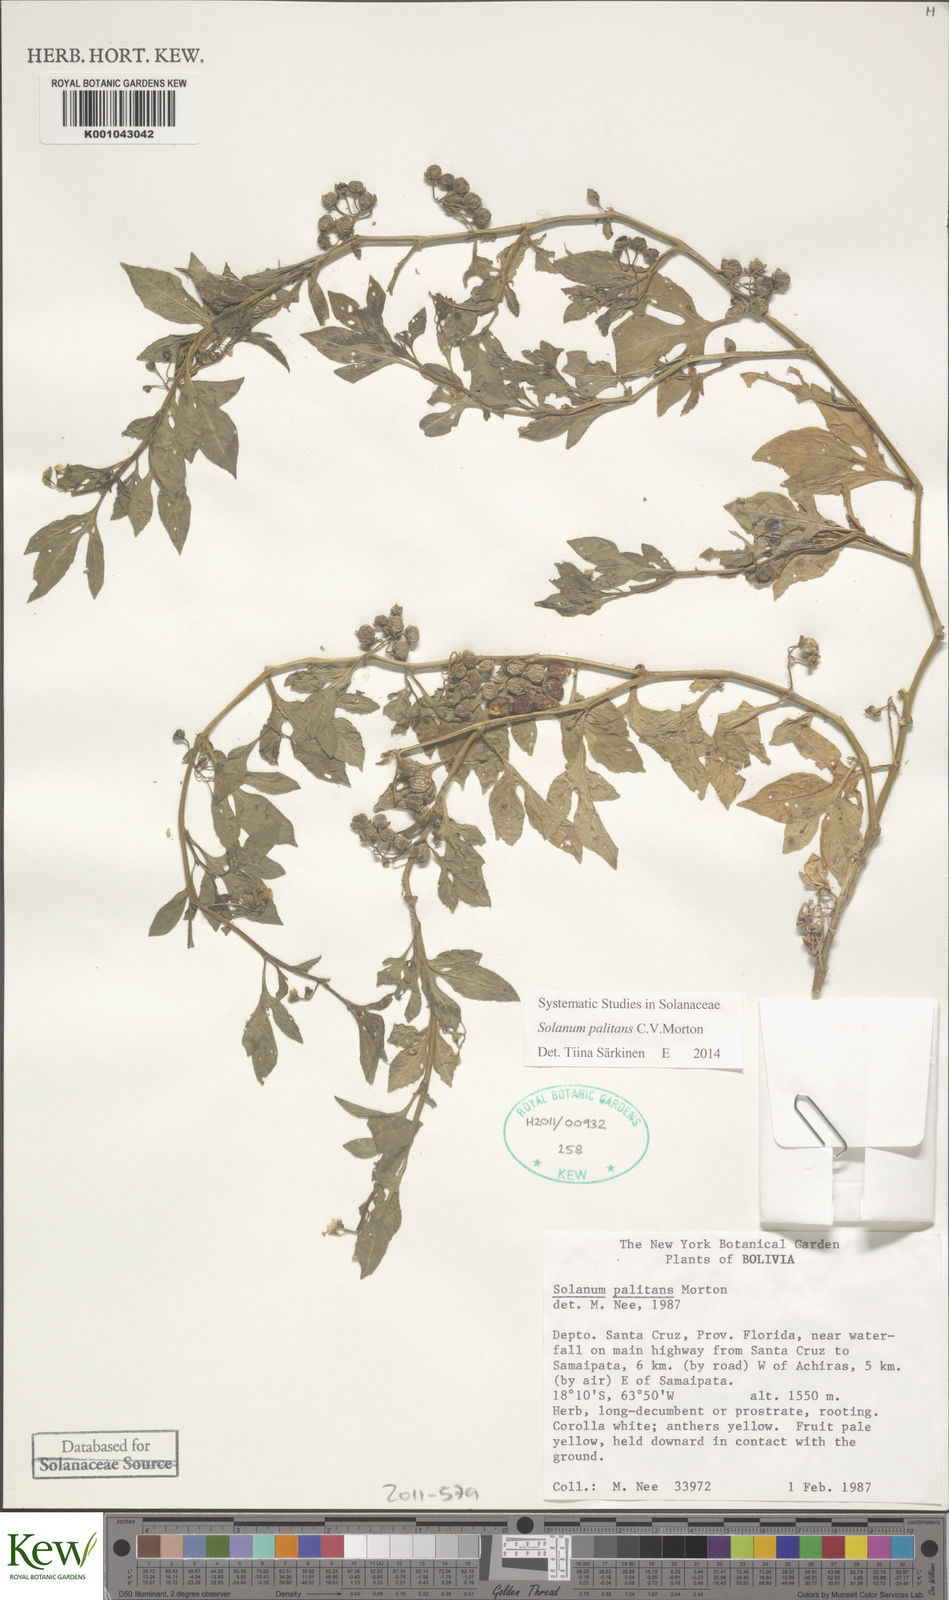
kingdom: Plantae
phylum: Tracheophyta
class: Magnoliopsida
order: Solanales
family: Solanaceae
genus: Solanum
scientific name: Solanum palitans
